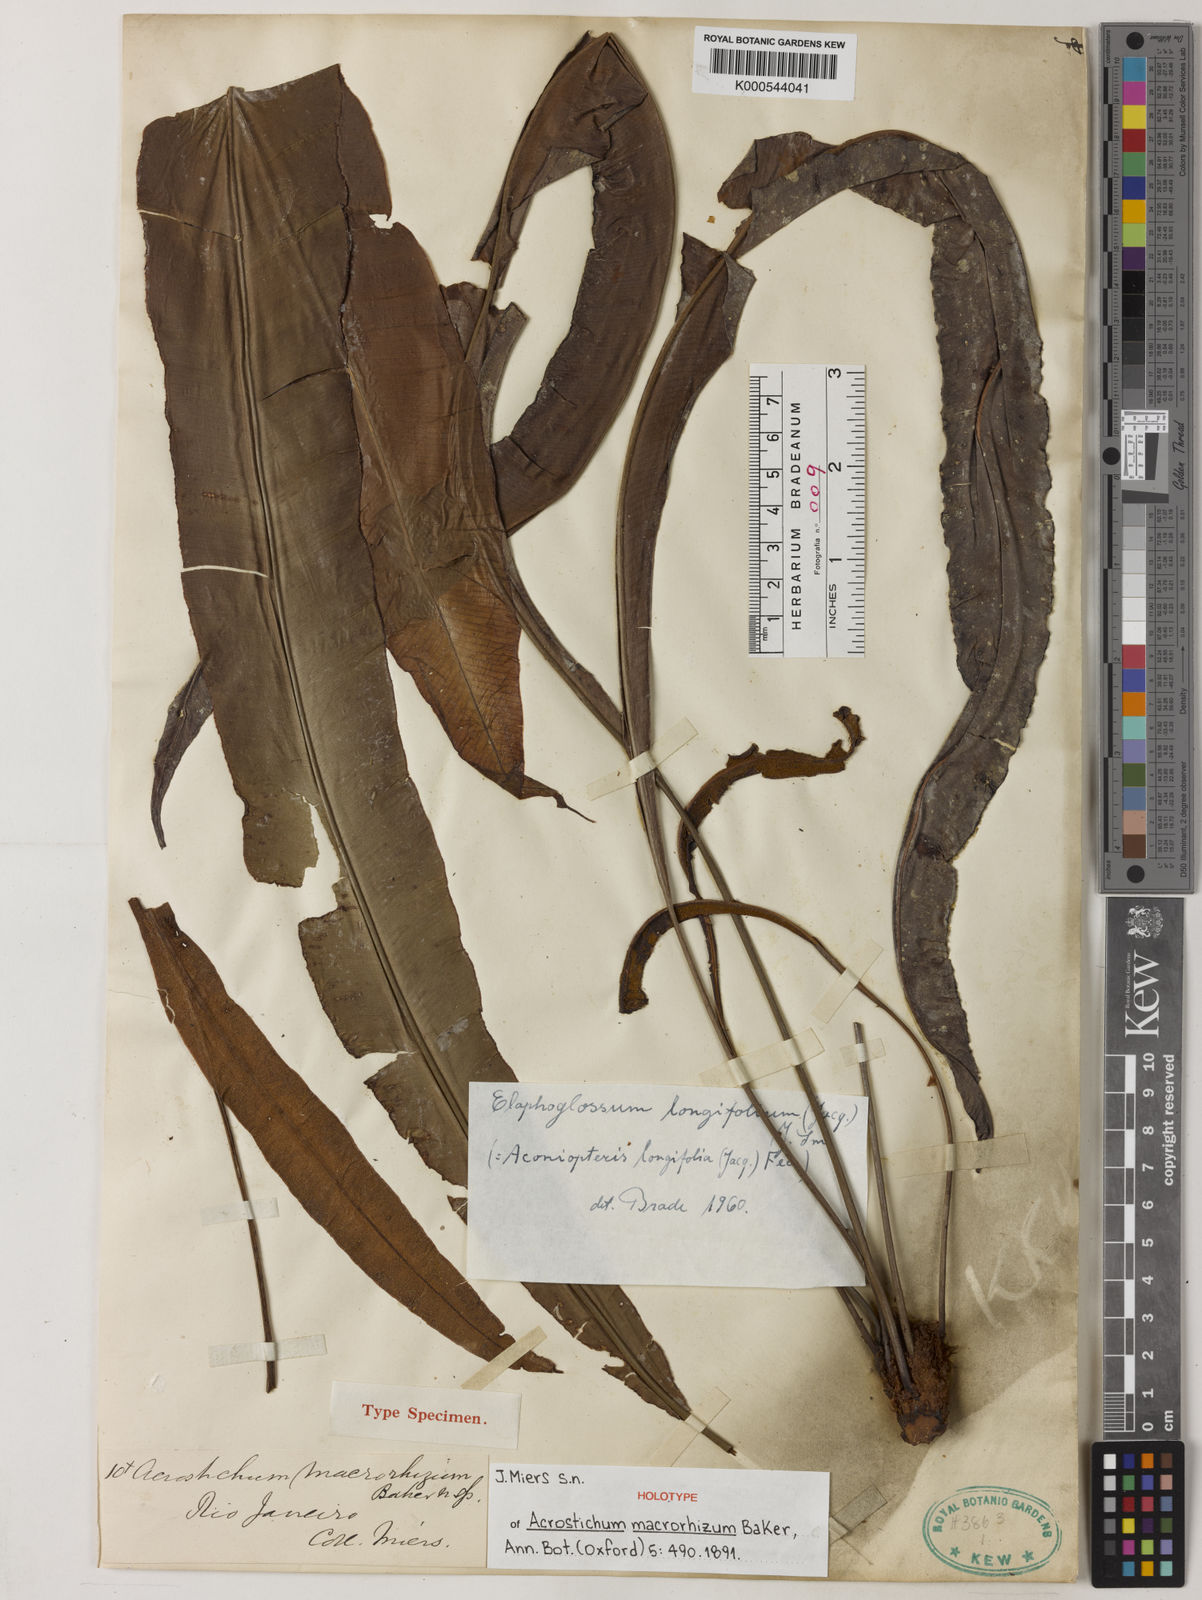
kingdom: Plantae
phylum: Tracheophyta
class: Polypodiopsida
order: Polypodiales
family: Dryopteridaceae
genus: Elaphoglossum
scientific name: Elaphoglossum longifolium
